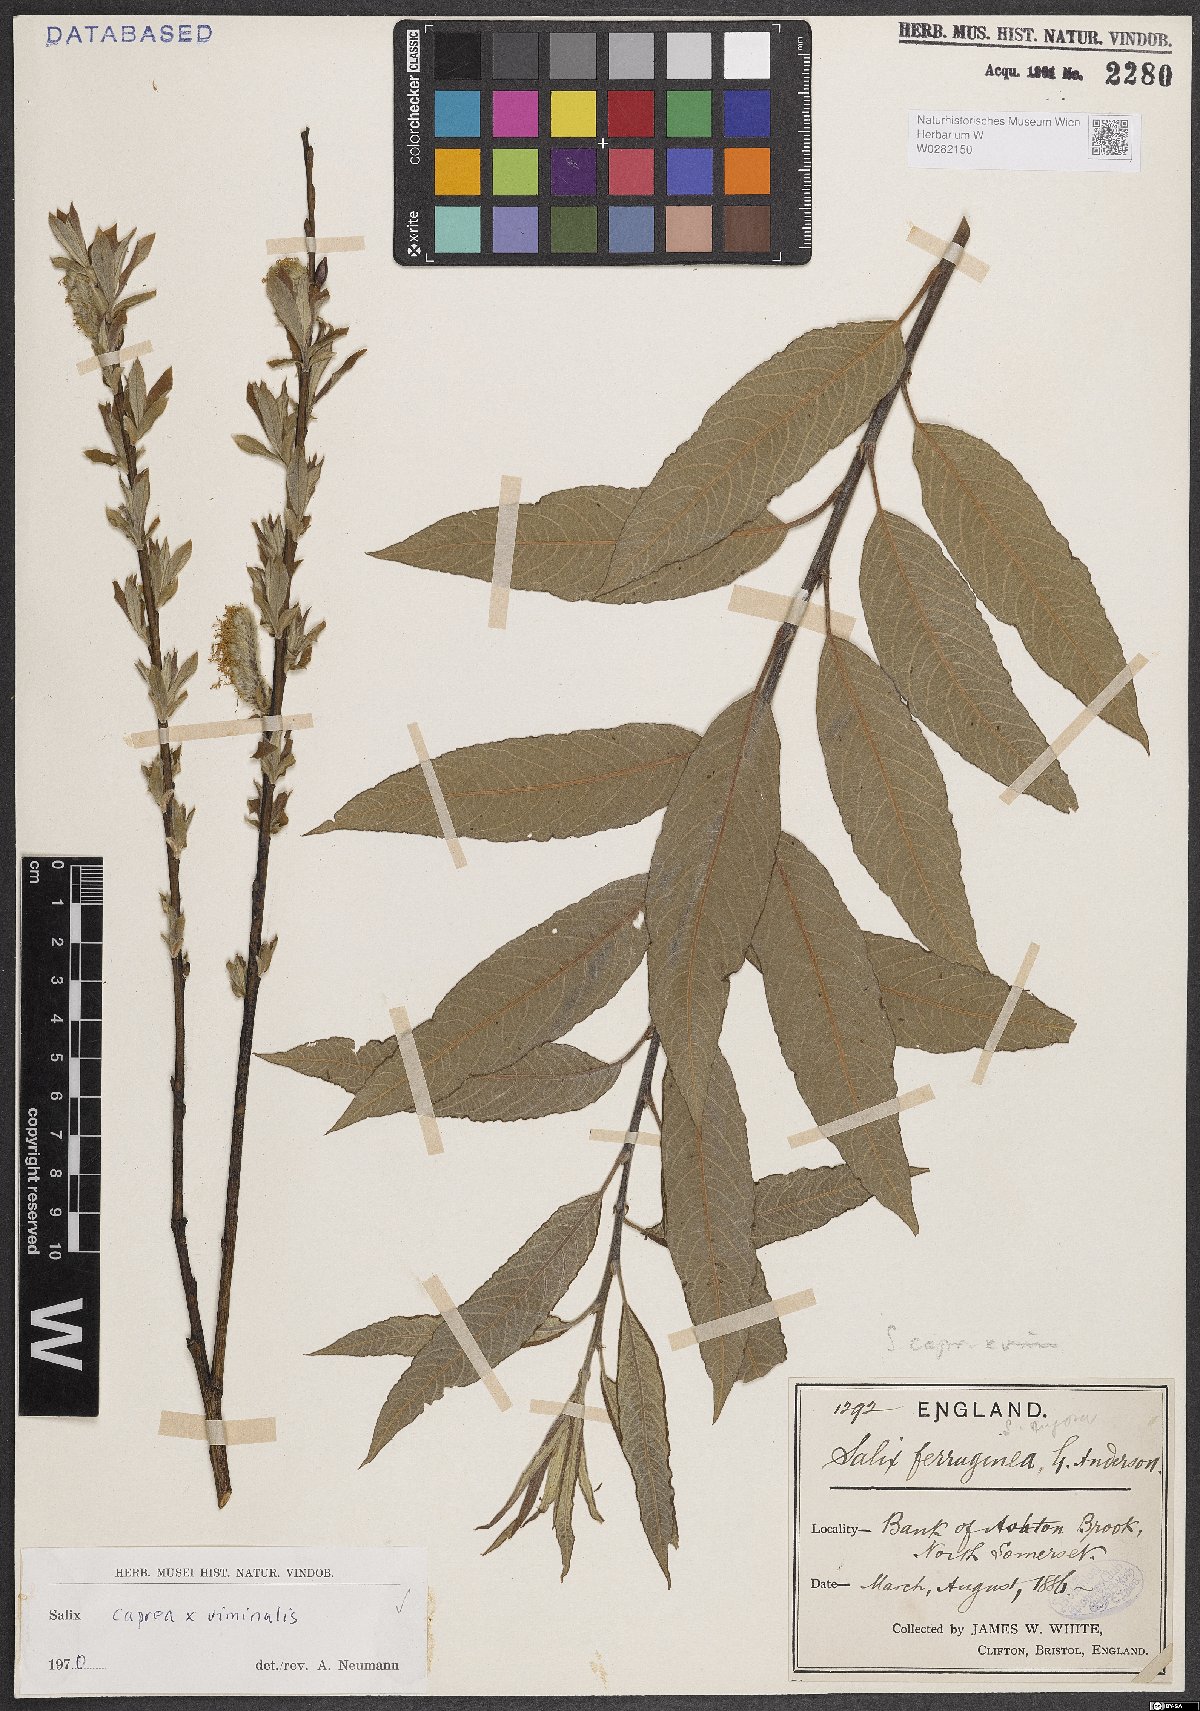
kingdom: Plantae
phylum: Tracheophyta
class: Magnoliopsida
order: Malpighiales
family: Salicaceae
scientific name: Salicaceae
